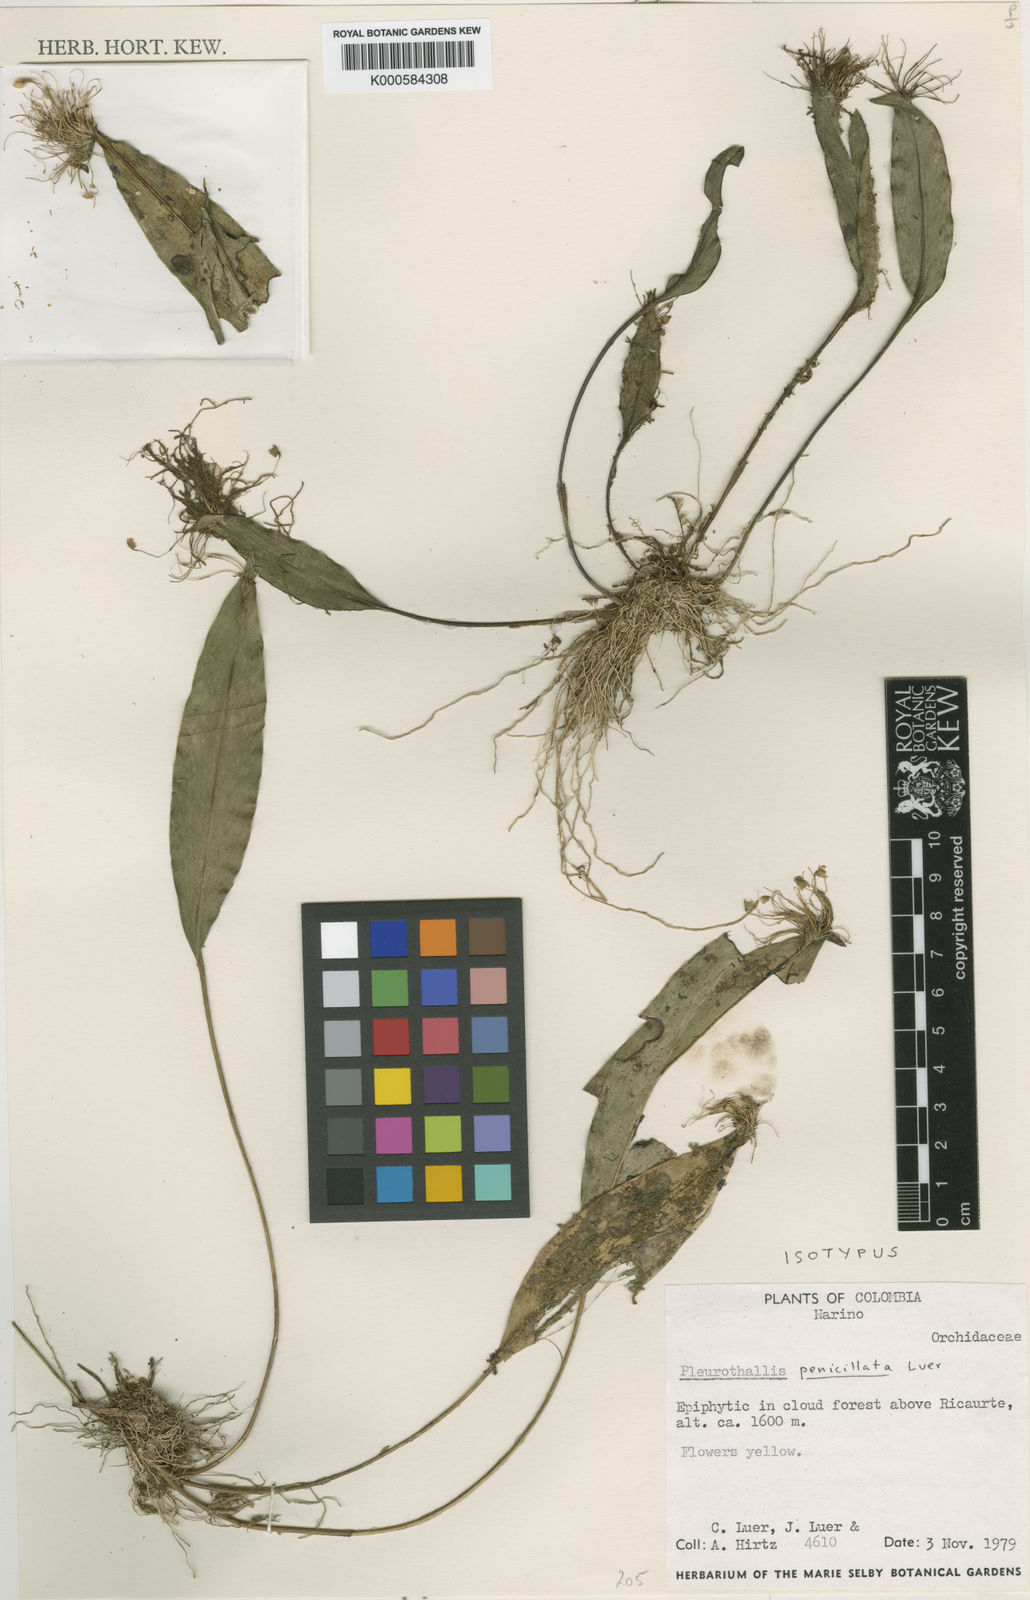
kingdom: Plantae
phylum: Tracheophyta
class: Liliopsida
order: Asparagales
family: Orchidaceae
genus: Pleurothallis
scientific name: Pleurothallis penicillata
